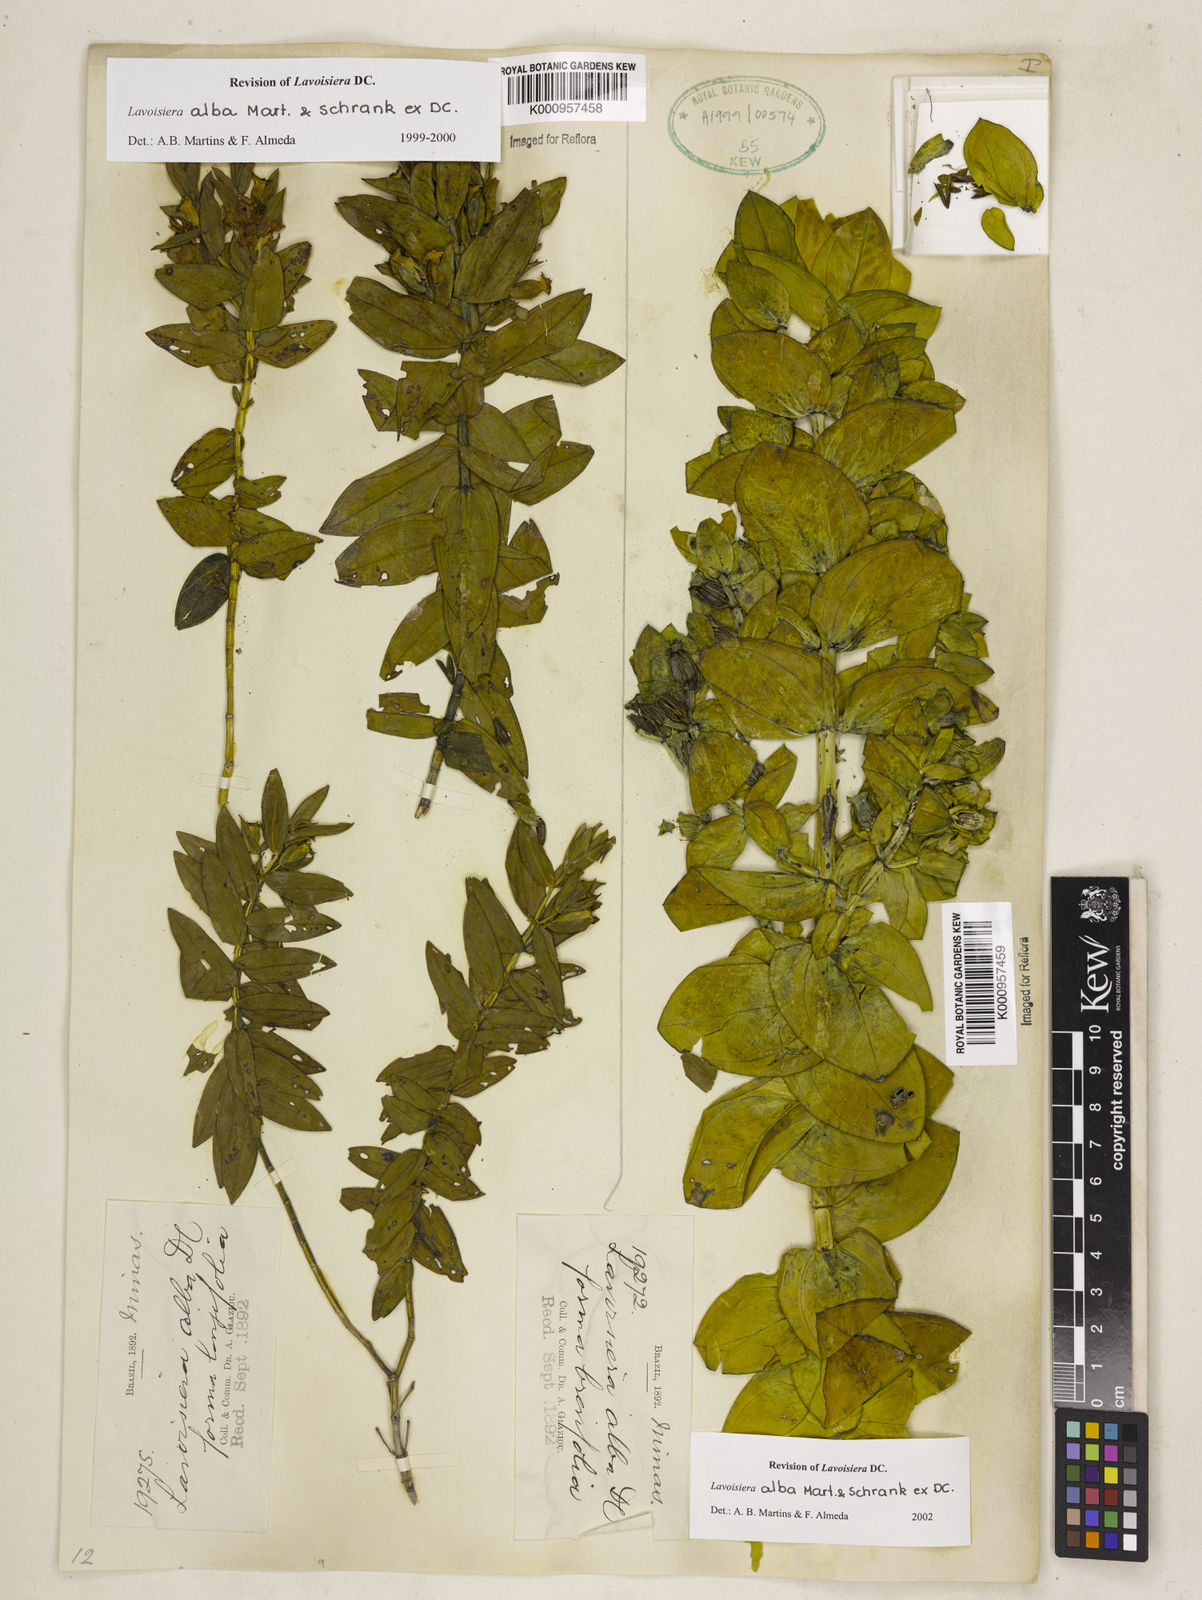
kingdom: Plantae
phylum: Tracheophyta
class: Magnoliopsida
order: Myrtales
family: Melastomataceae
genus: Microlicia
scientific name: Microlicia alba
